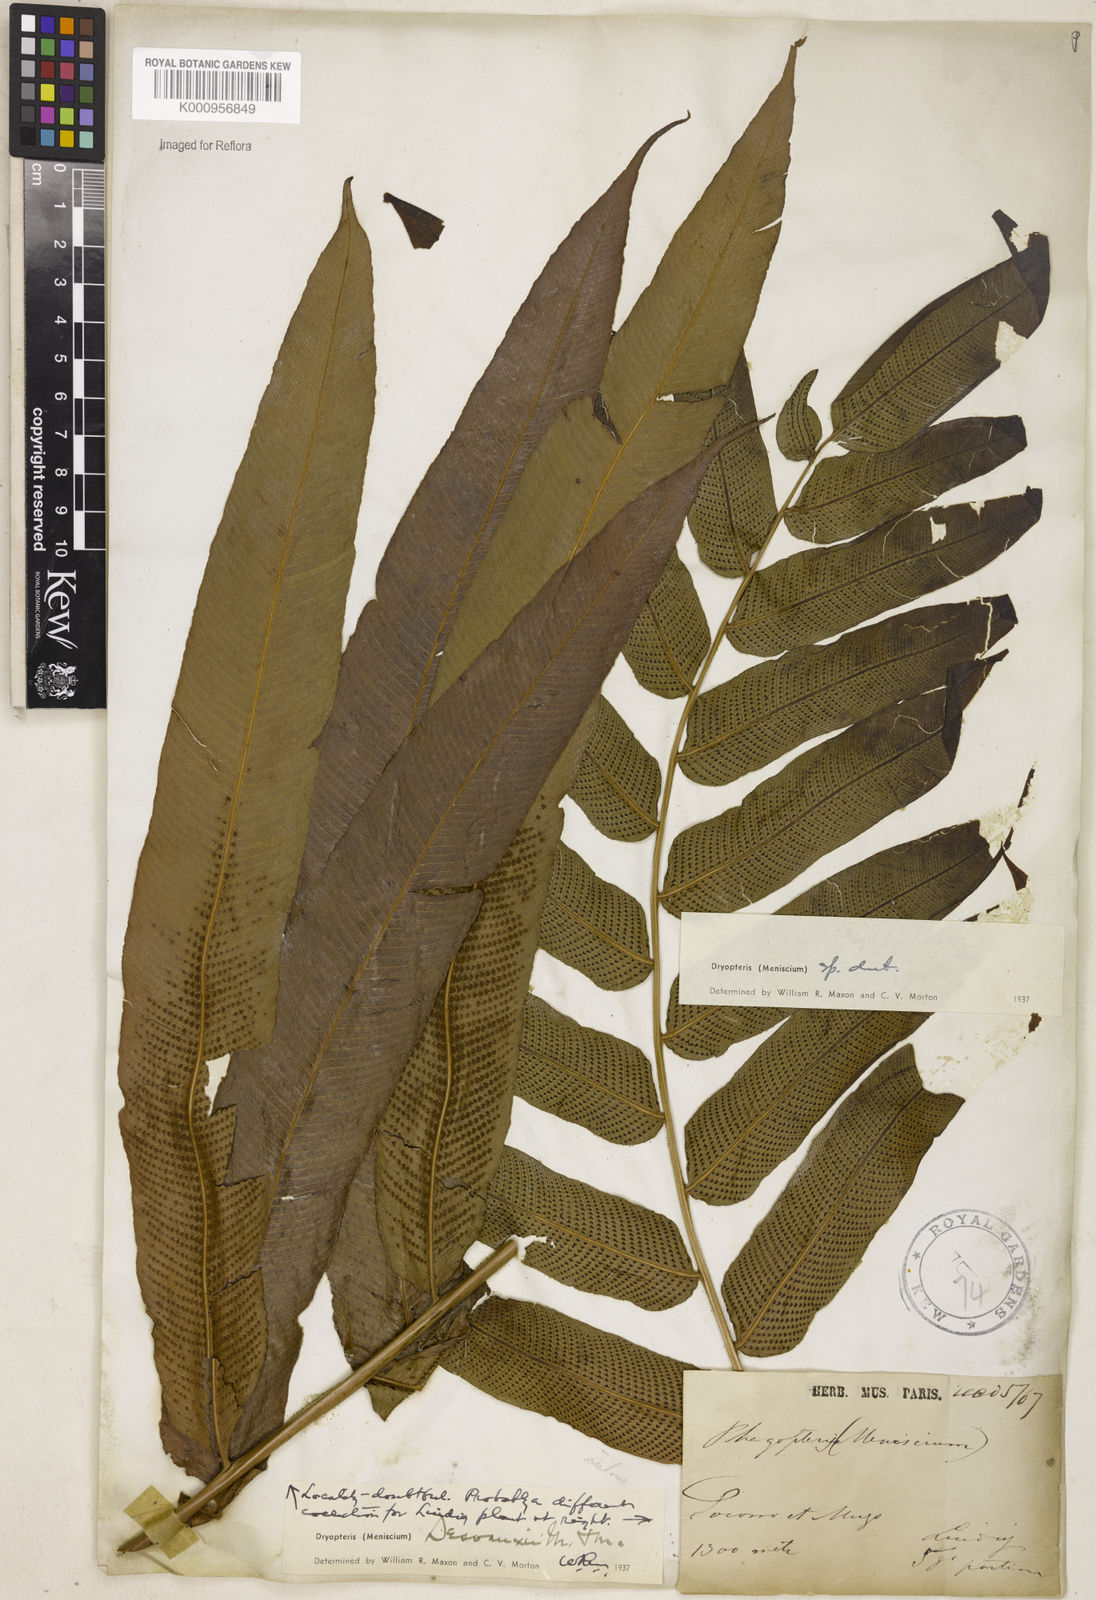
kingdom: Plantae
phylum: Tracheophyta
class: Polypodiopsida
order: Polypodiales
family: Thelypteridaceae
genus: Meniscium
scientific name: Meniscium arborescens
